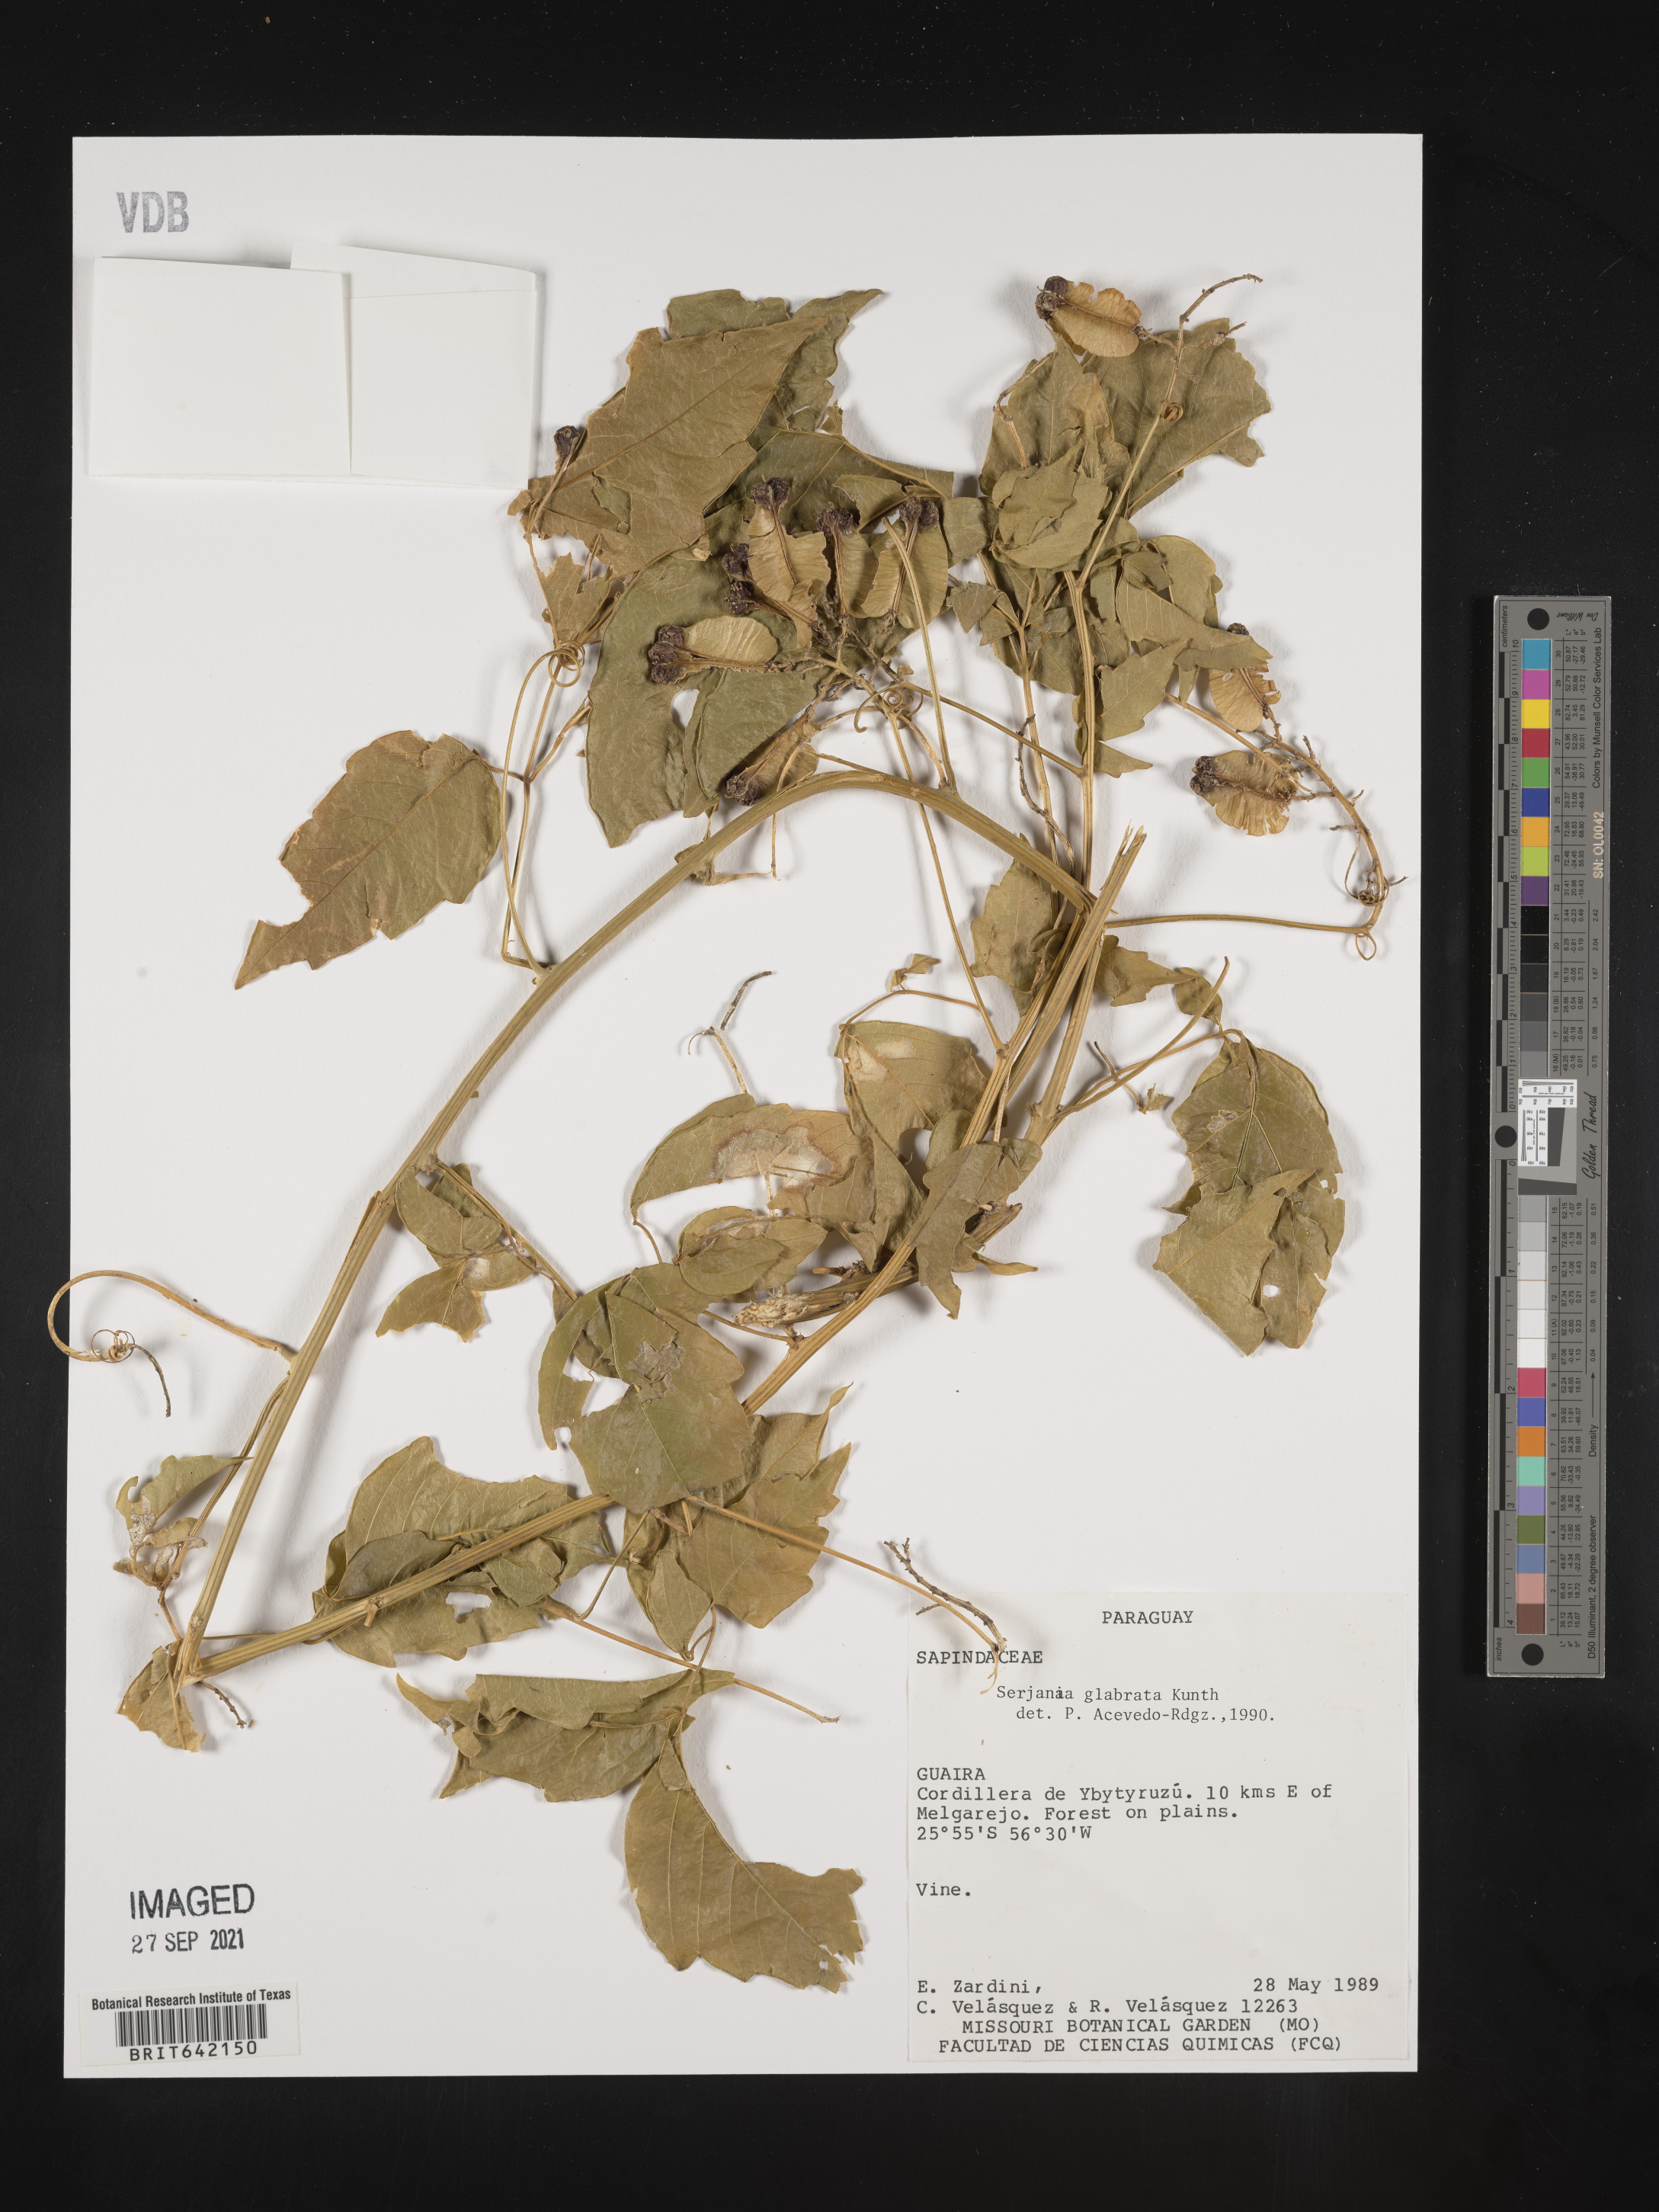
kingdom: Plantae
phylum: Tracheophyta
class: Magnoliopsida
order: Sapindales
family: Sapindaceae
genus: Serjania
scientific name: Serjania
